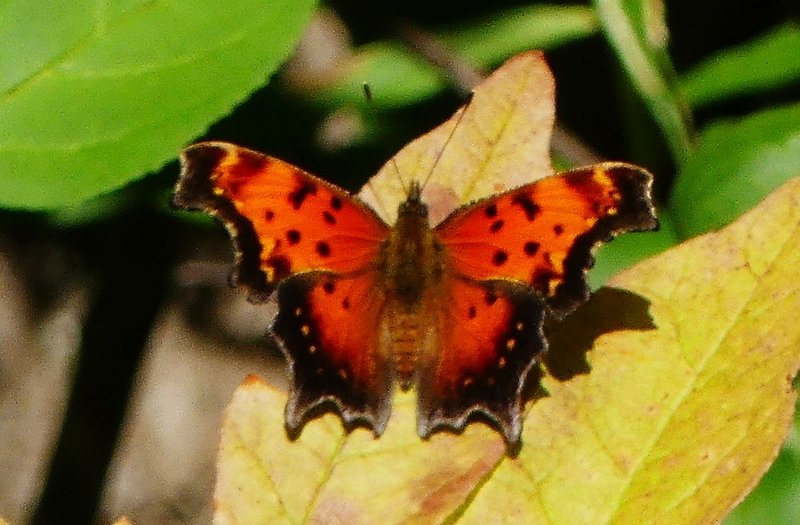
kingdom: Animalia
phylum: Arthropoda
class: Insecta
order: Lepidoptera
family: Nymphalidae
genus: Polygonia
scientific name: Polygonia progne
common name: Gray Comma
